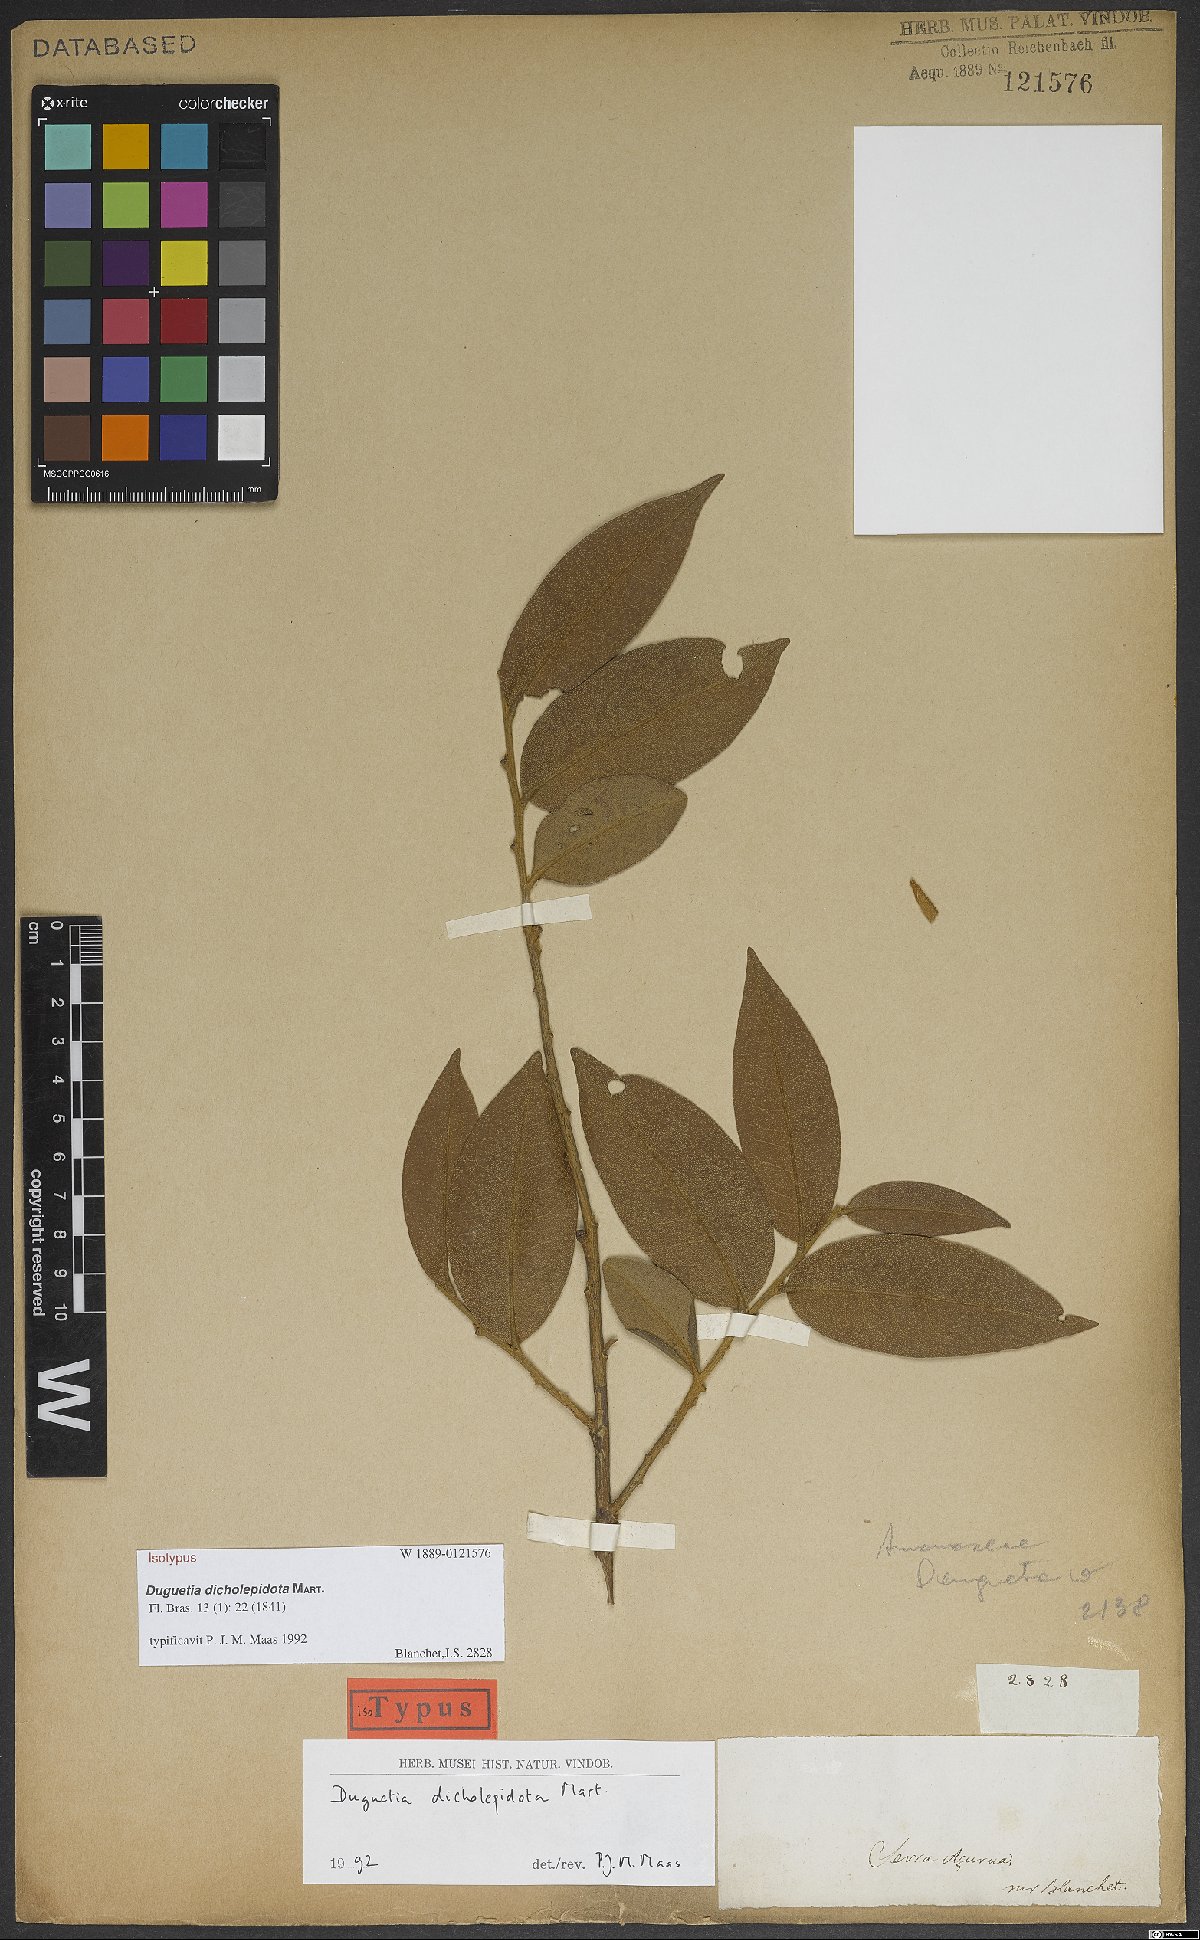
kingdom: Plantae
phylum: Tracheophyta
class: Magnoliopsida
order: Magnoliales
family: Annonaceae
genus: Duguetia
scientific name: Duguetia dicholepidota
